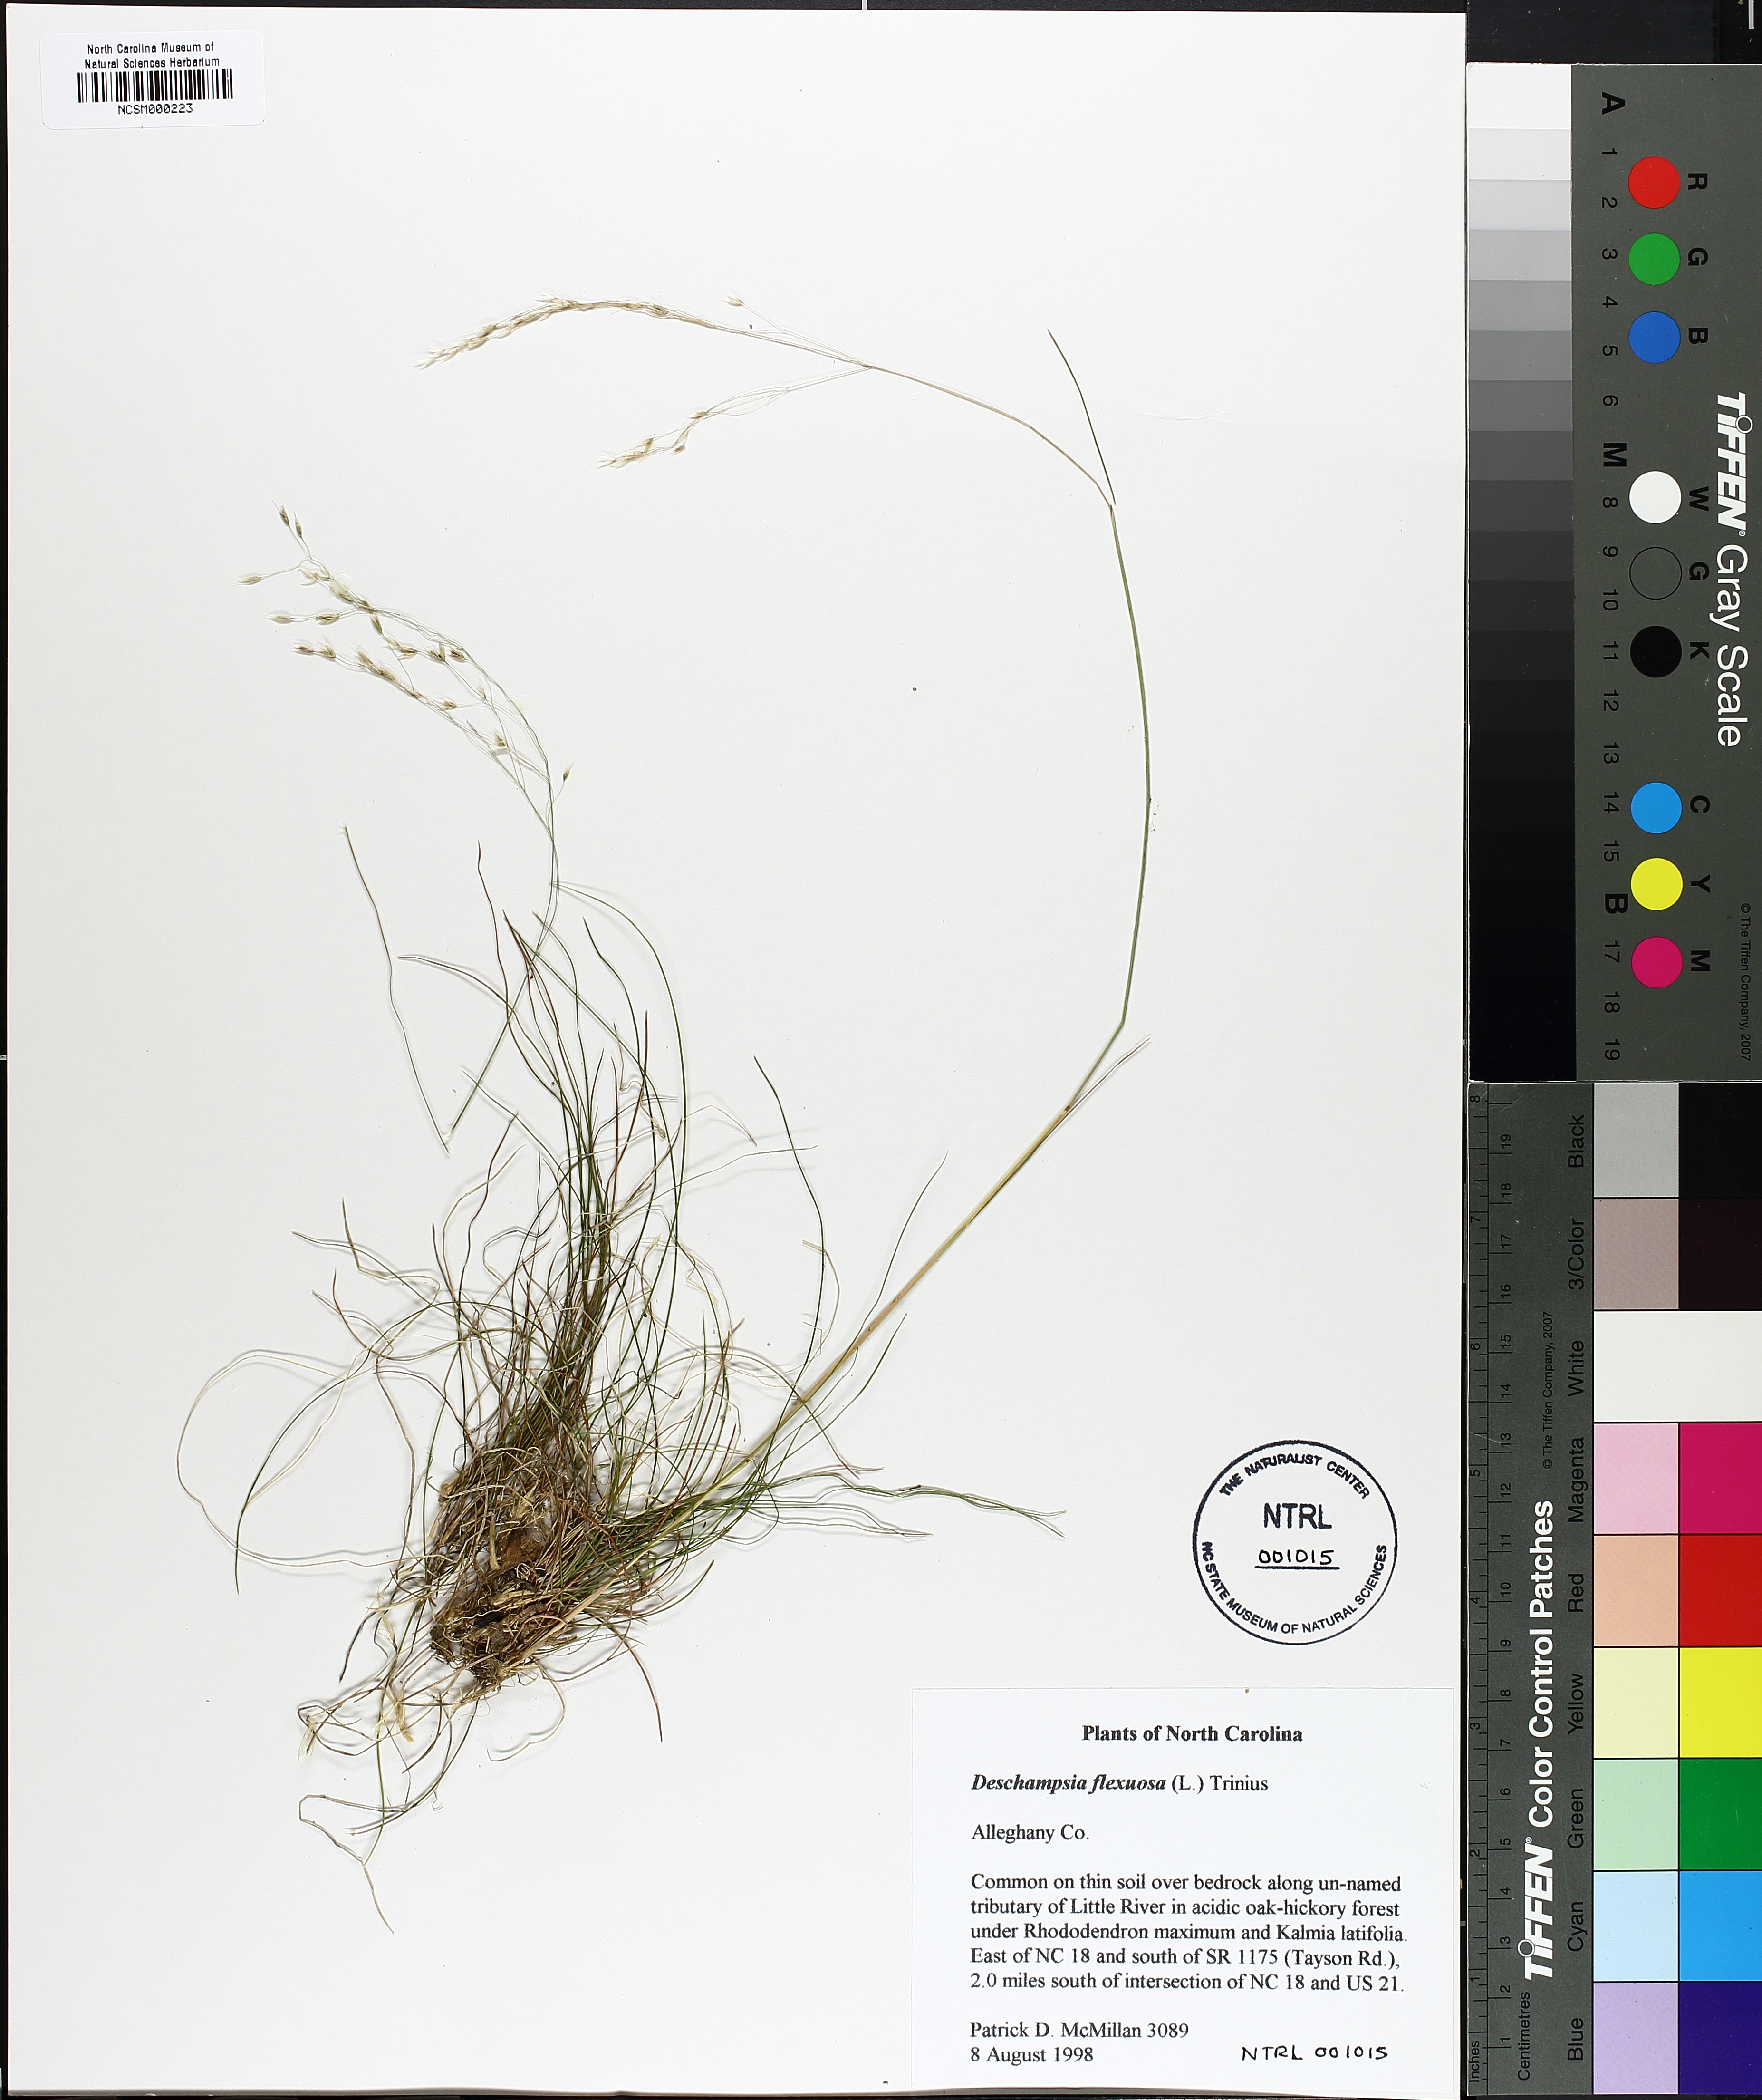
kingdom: Plantae
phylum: Tracheophyta
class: Liliopsida
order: Poales
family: Poaceae
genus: Avenella
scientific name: Avenella flexuosa
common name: Wavy hairgrass
